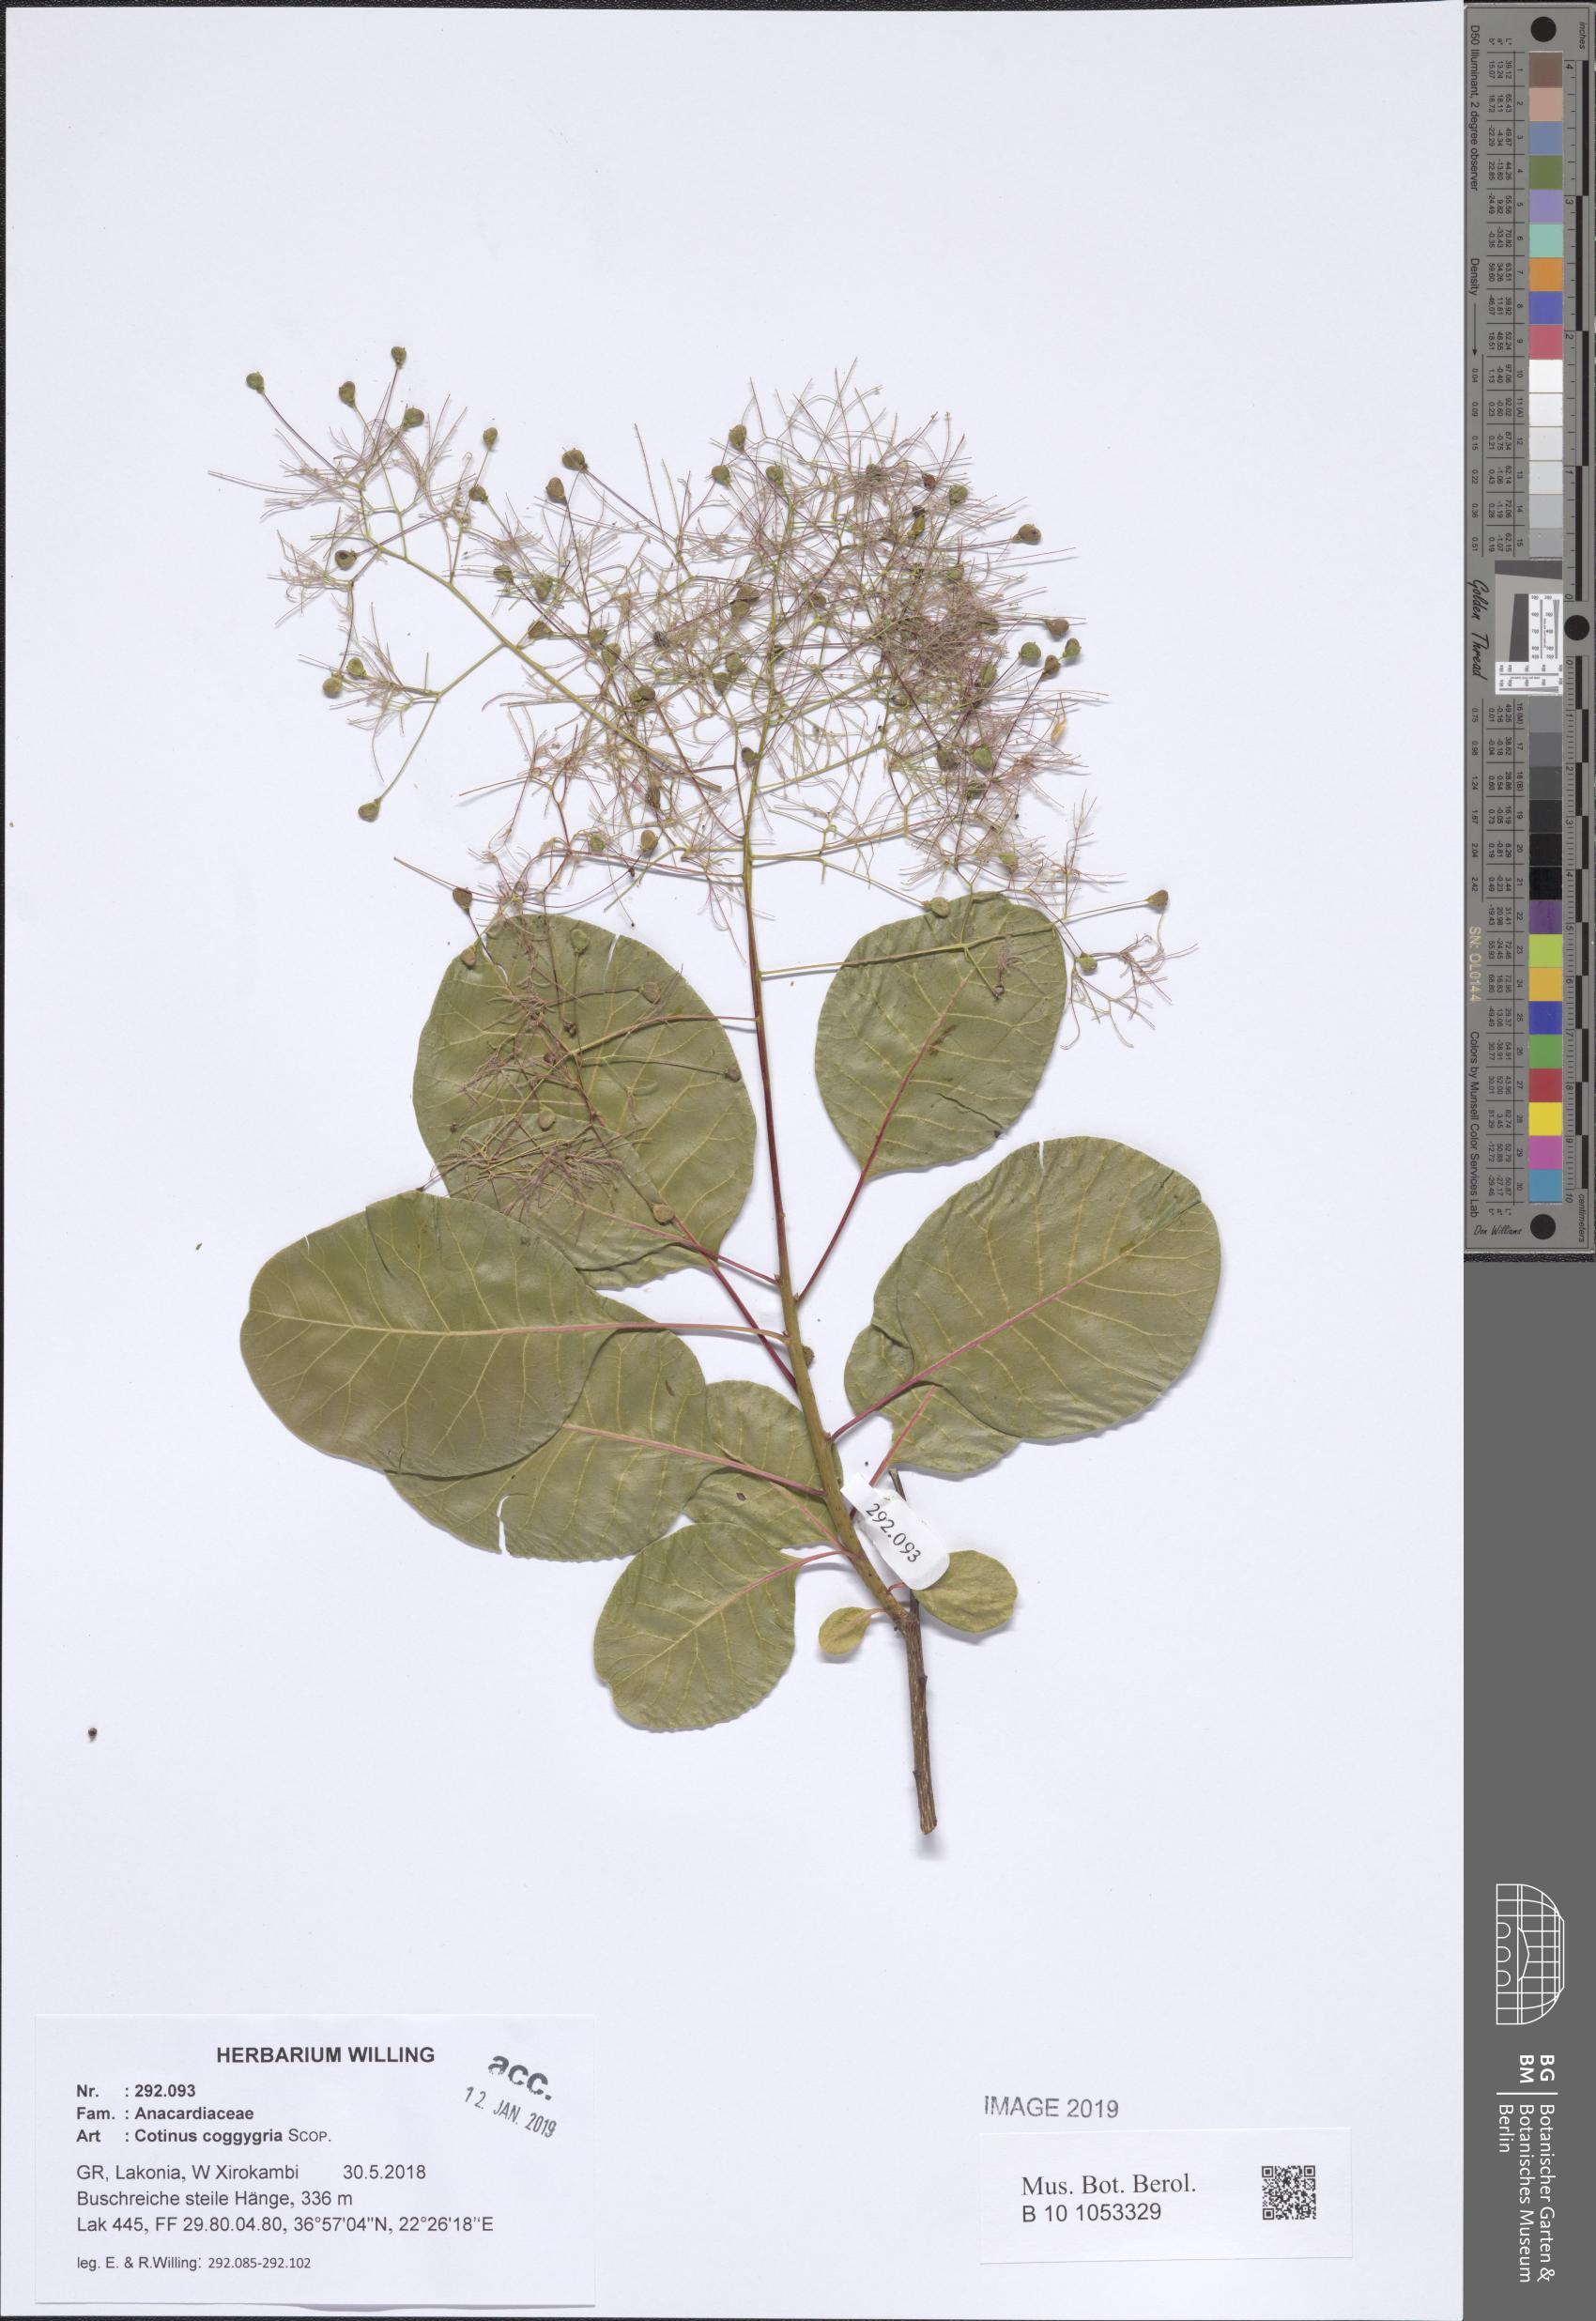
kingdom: Plantae
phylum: Tracheophyta
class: Magnoliopsida
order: Sapindales
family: Anacardiaceae
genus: Cotinus
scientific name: Cotinus coggygria
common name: Smoke-tree
